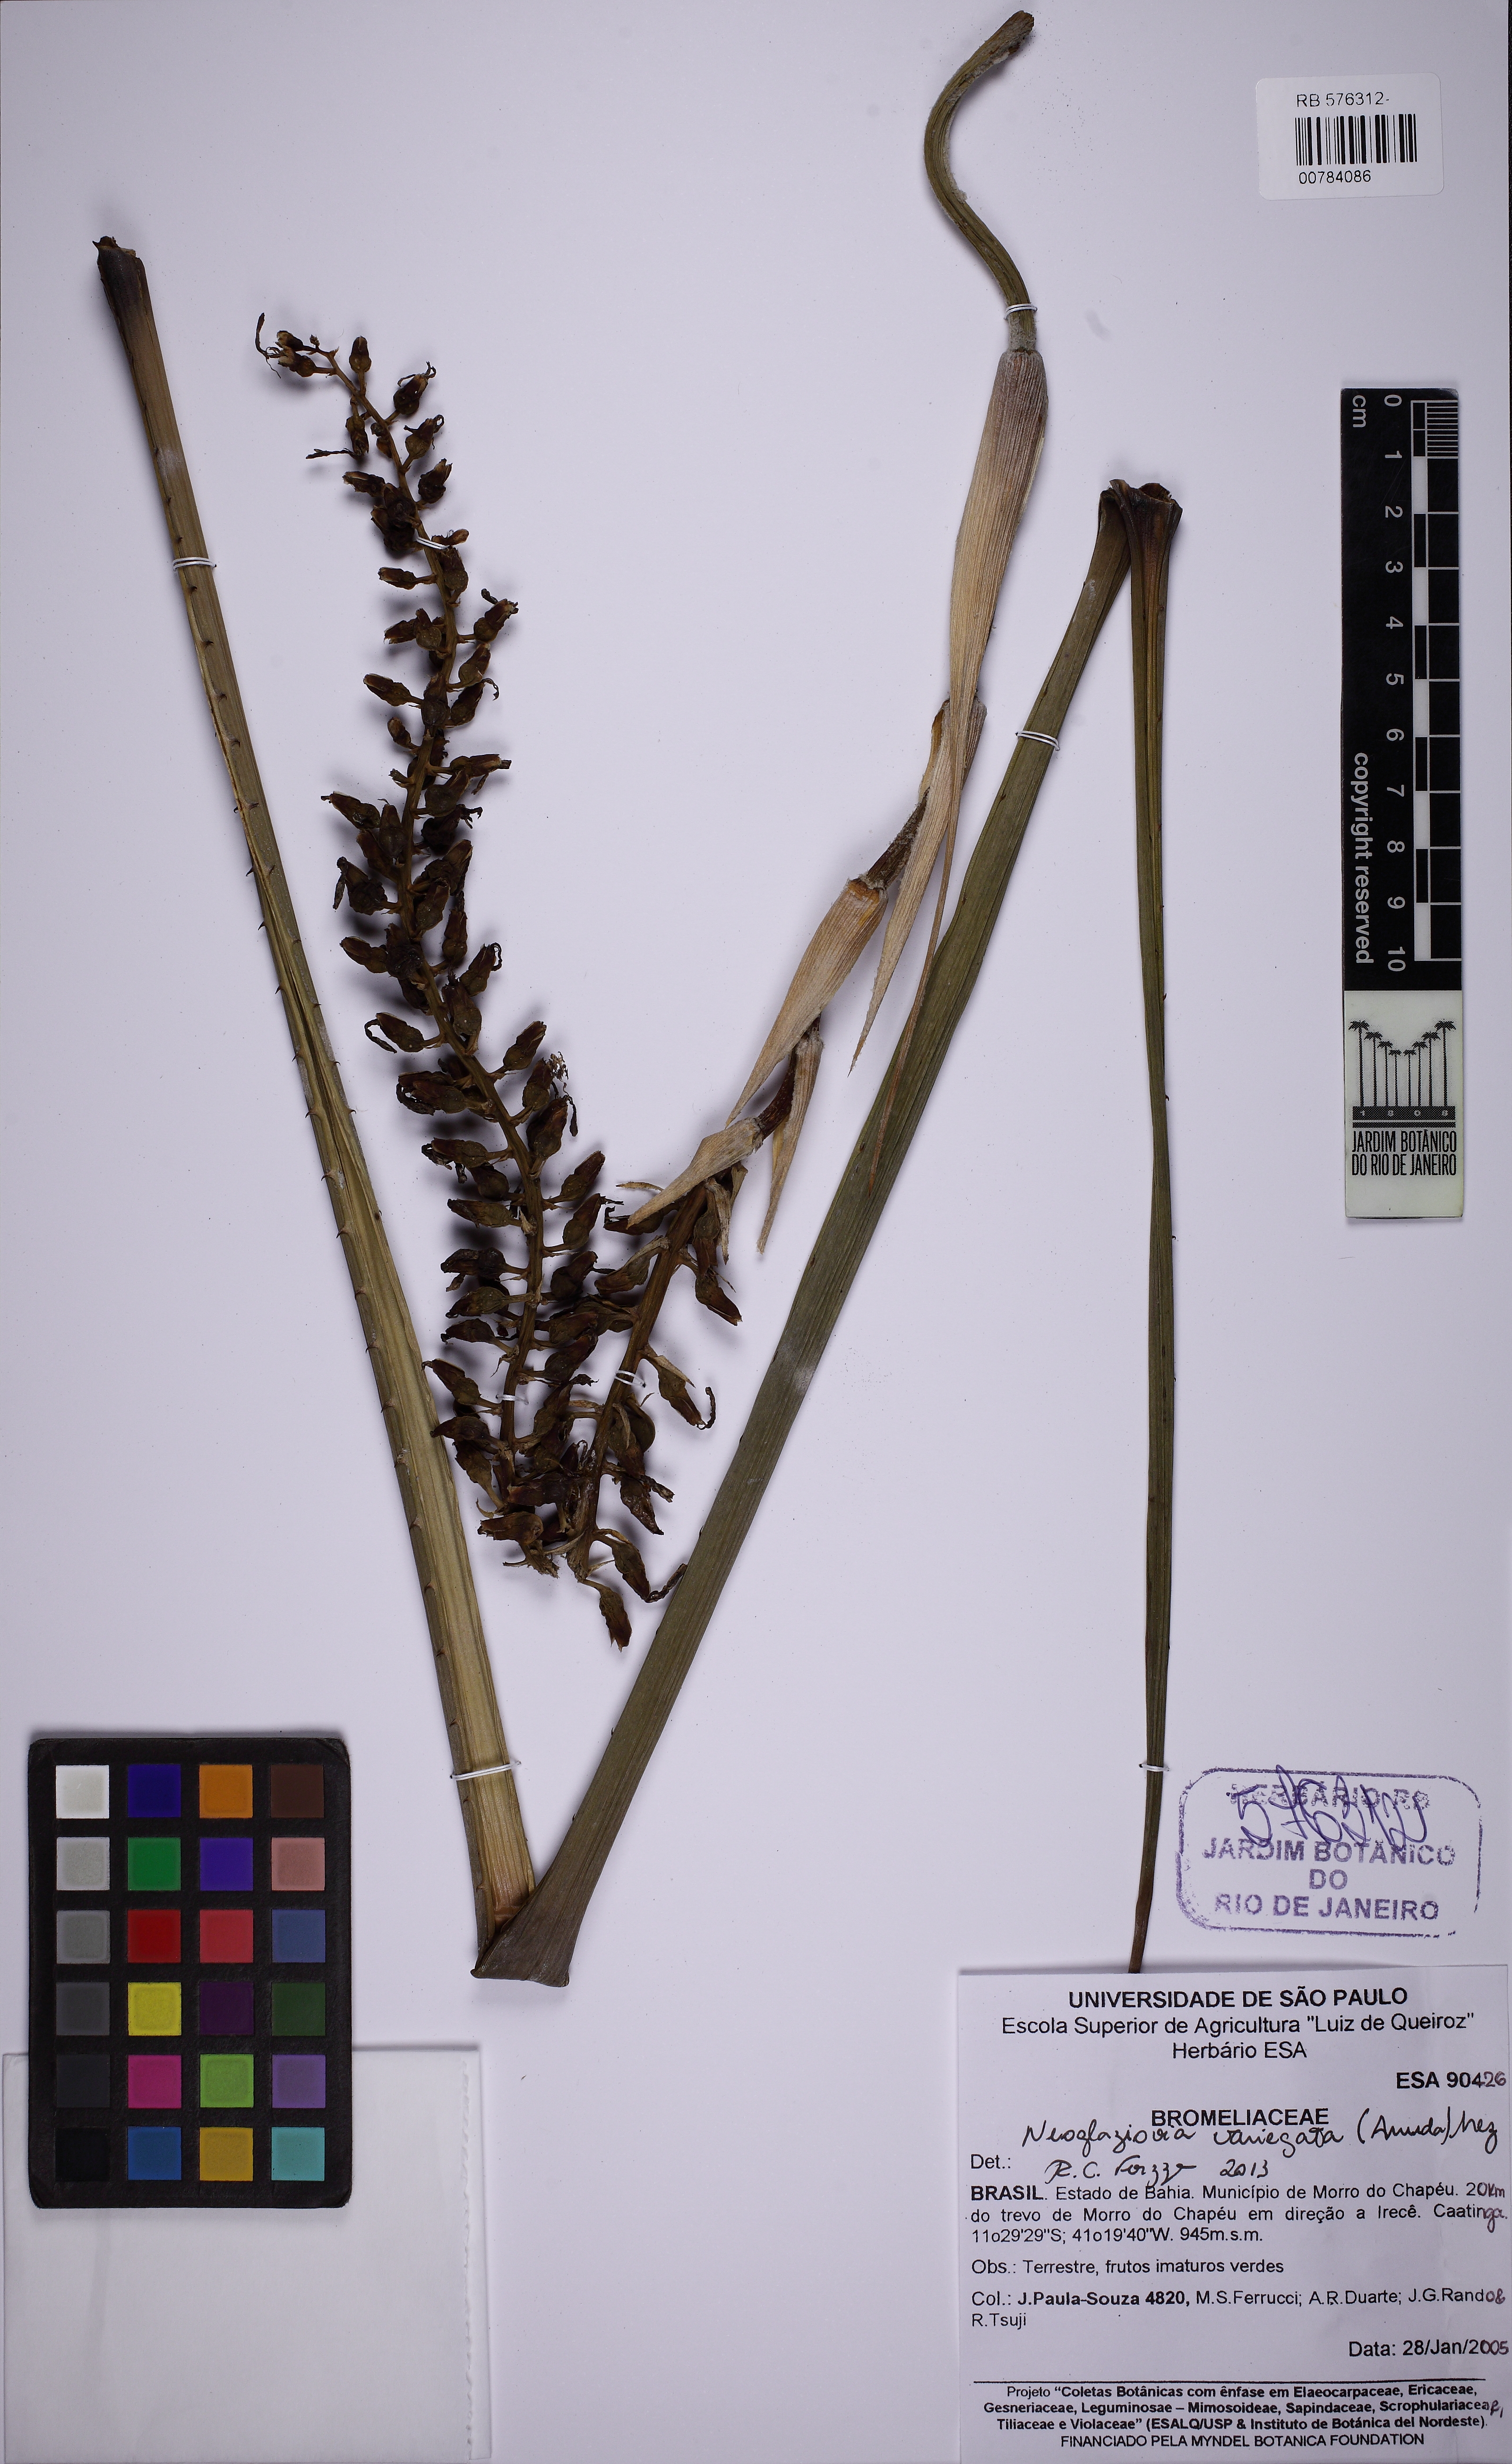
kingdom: Plantae
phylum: Tracheophyta
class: Liliopsida
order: Poales
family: Bromeliaceae
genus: Neoglaziovia
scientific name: Neoglaziovia variegata
